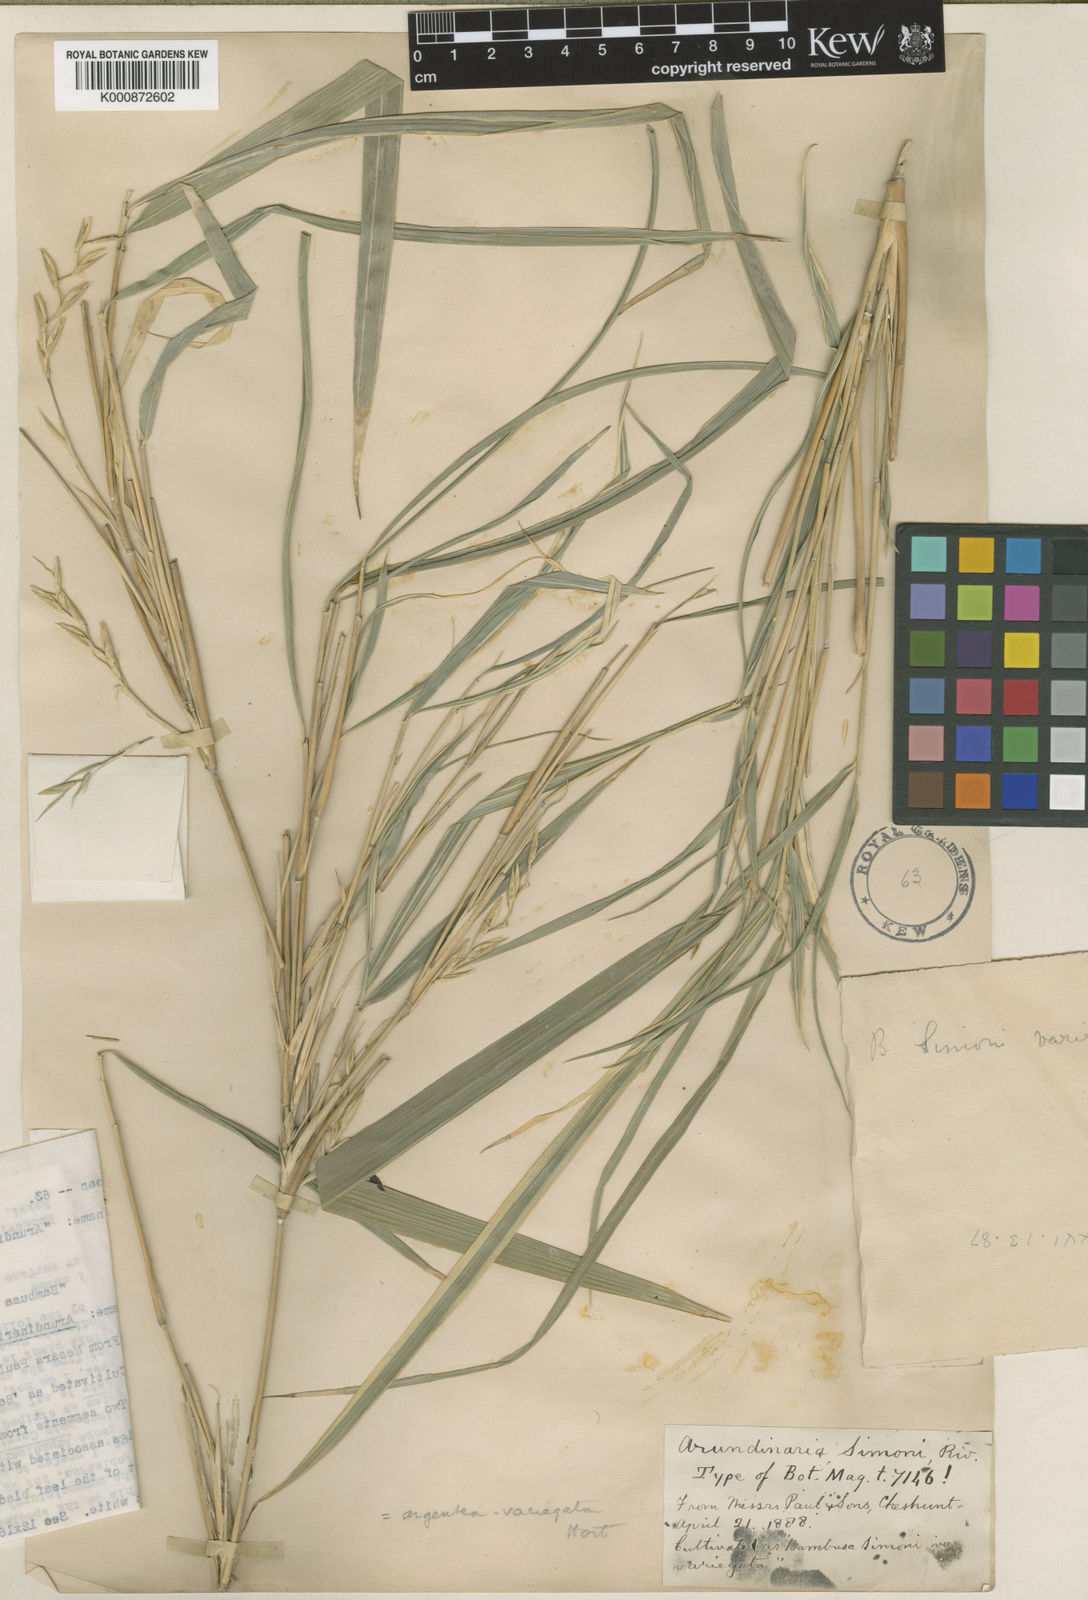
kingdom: Plantae
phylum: Tracheophyta
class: Liliopsida
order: Poales
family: Poaceae
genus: Arundinaria
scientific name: Arundinaria
